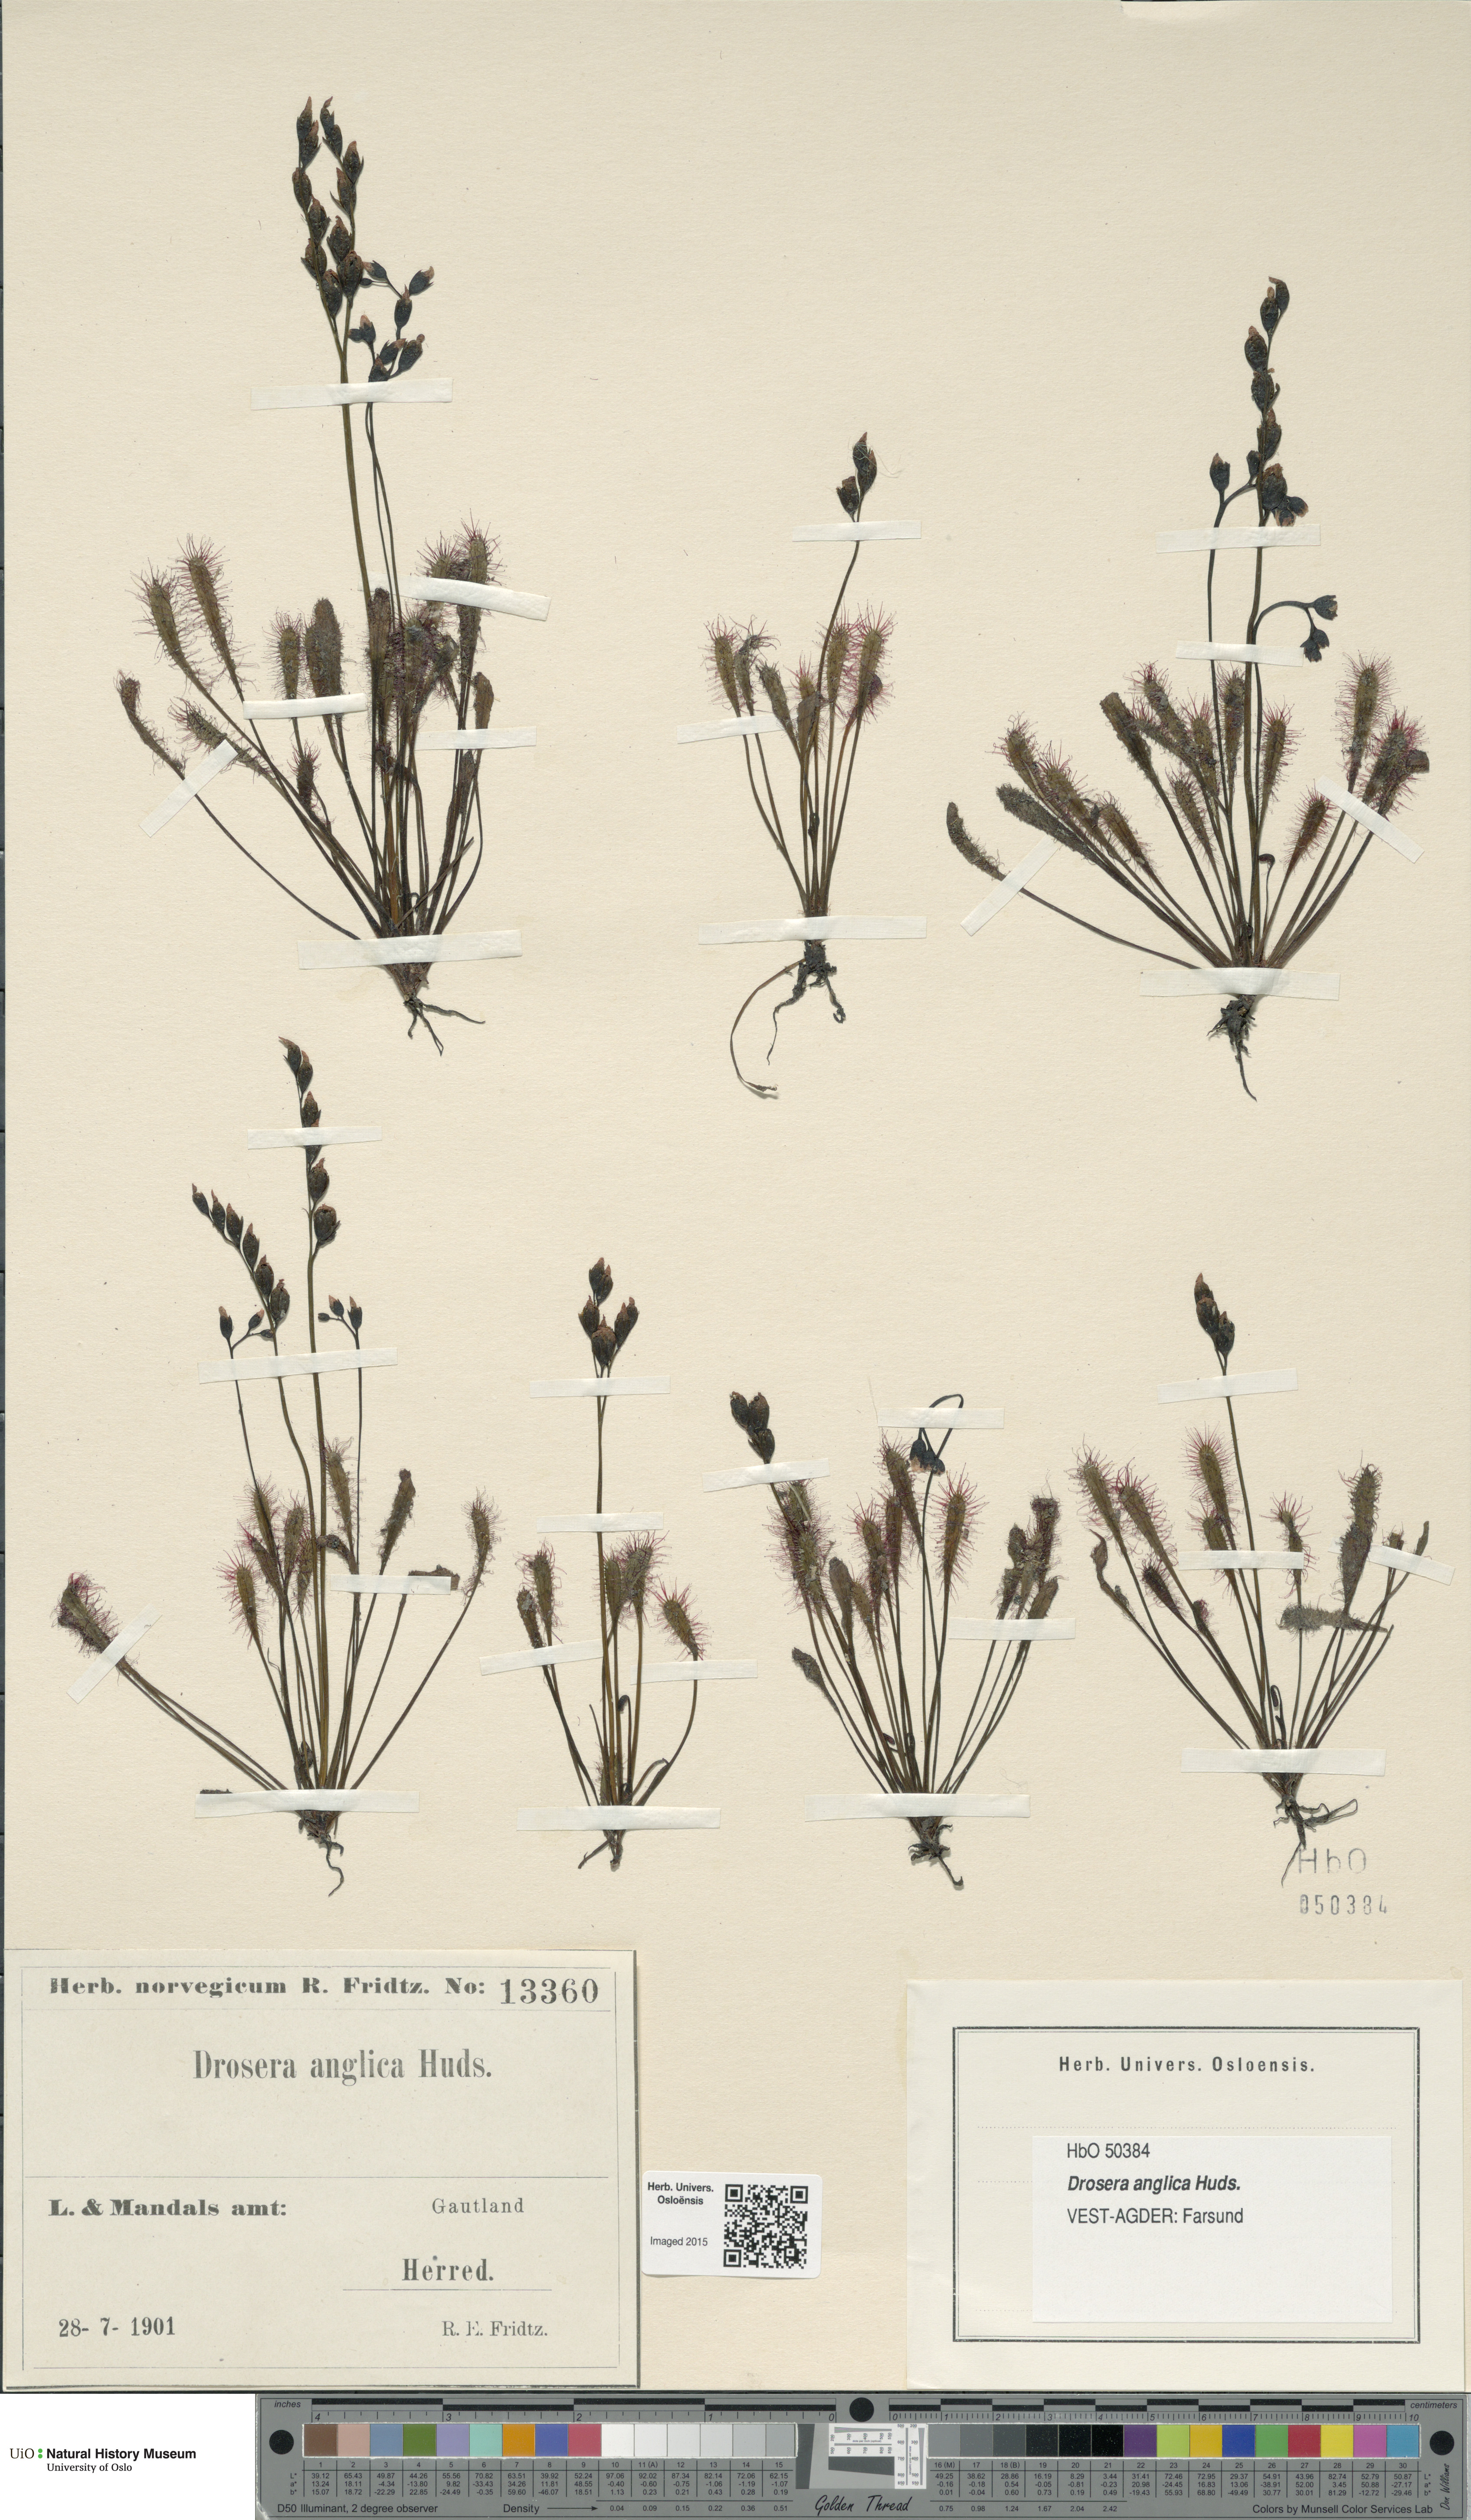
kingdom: Plantae
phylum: Tracheophyta
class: Magnoliopsida
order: Caryophyllales
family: Droseraceae
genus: Drosera
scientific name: Drosera anglica
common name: Great sundew
